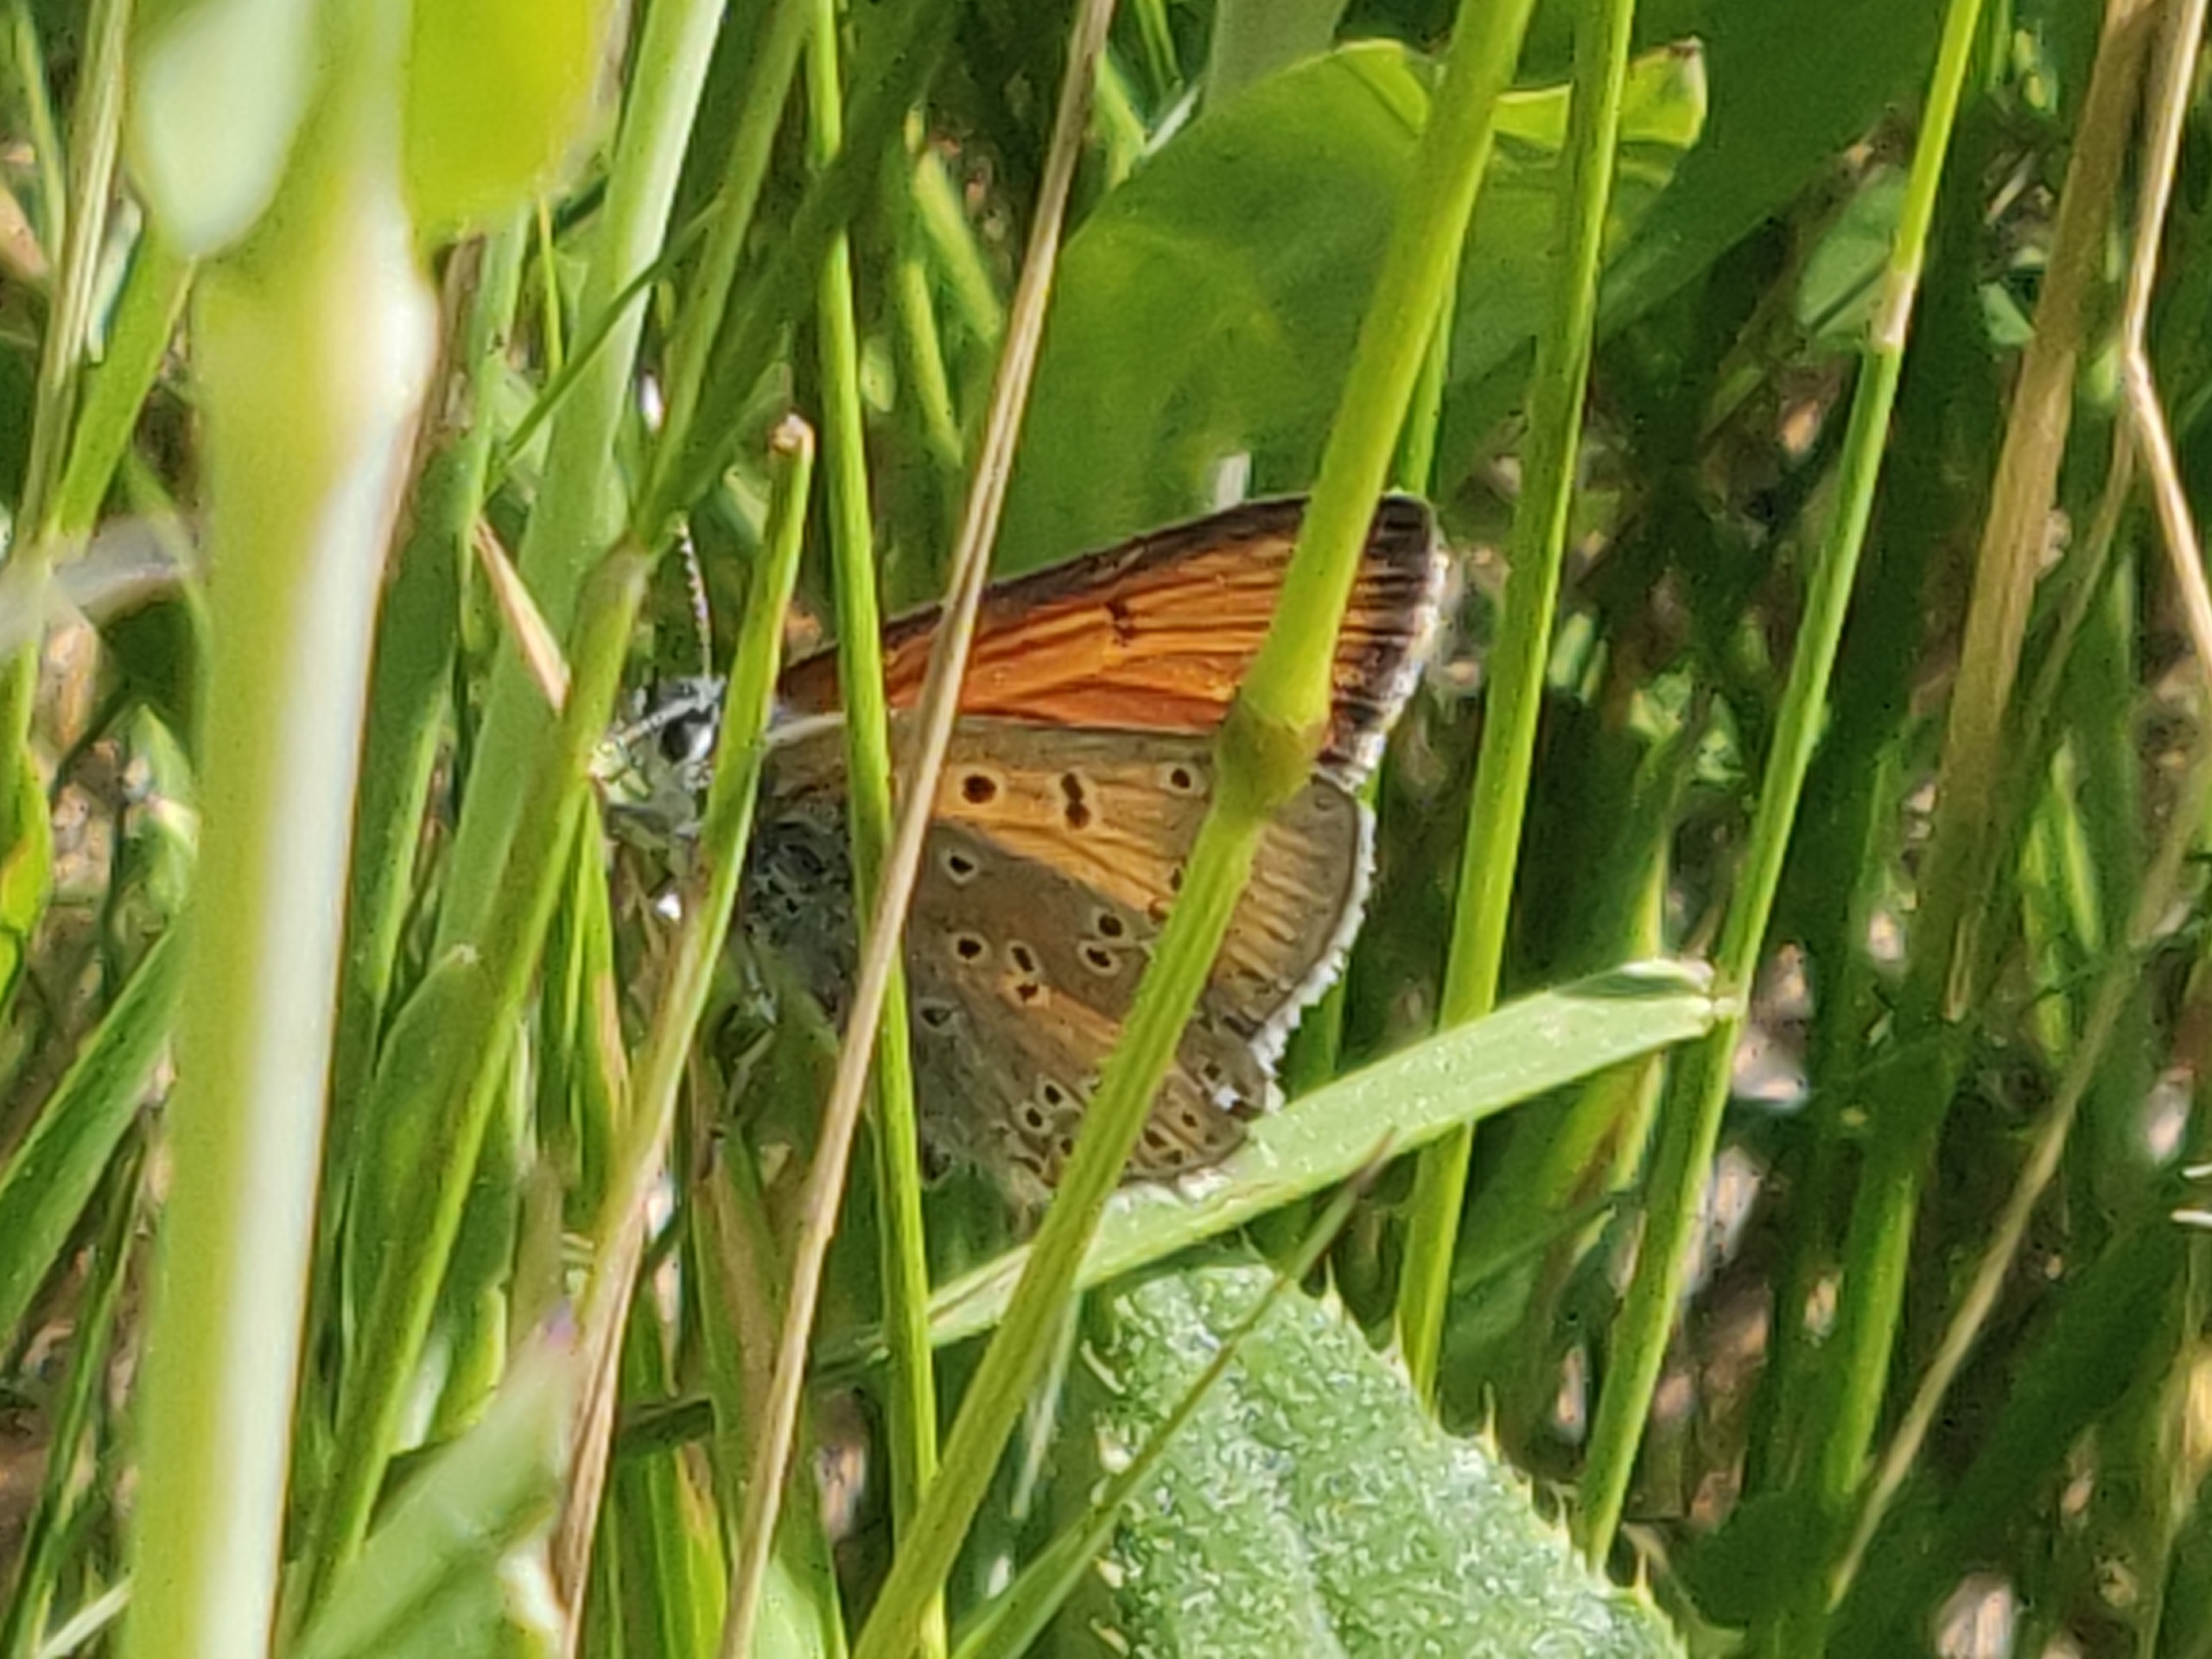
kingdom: Animalia
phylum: Arthropoda
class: Insecta
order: Lepidoptera
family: Lycaenidae
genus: Palaeochrysophanus
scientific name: Palaeochrysophanus hippothoe
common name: Violetrandet ildfugl
